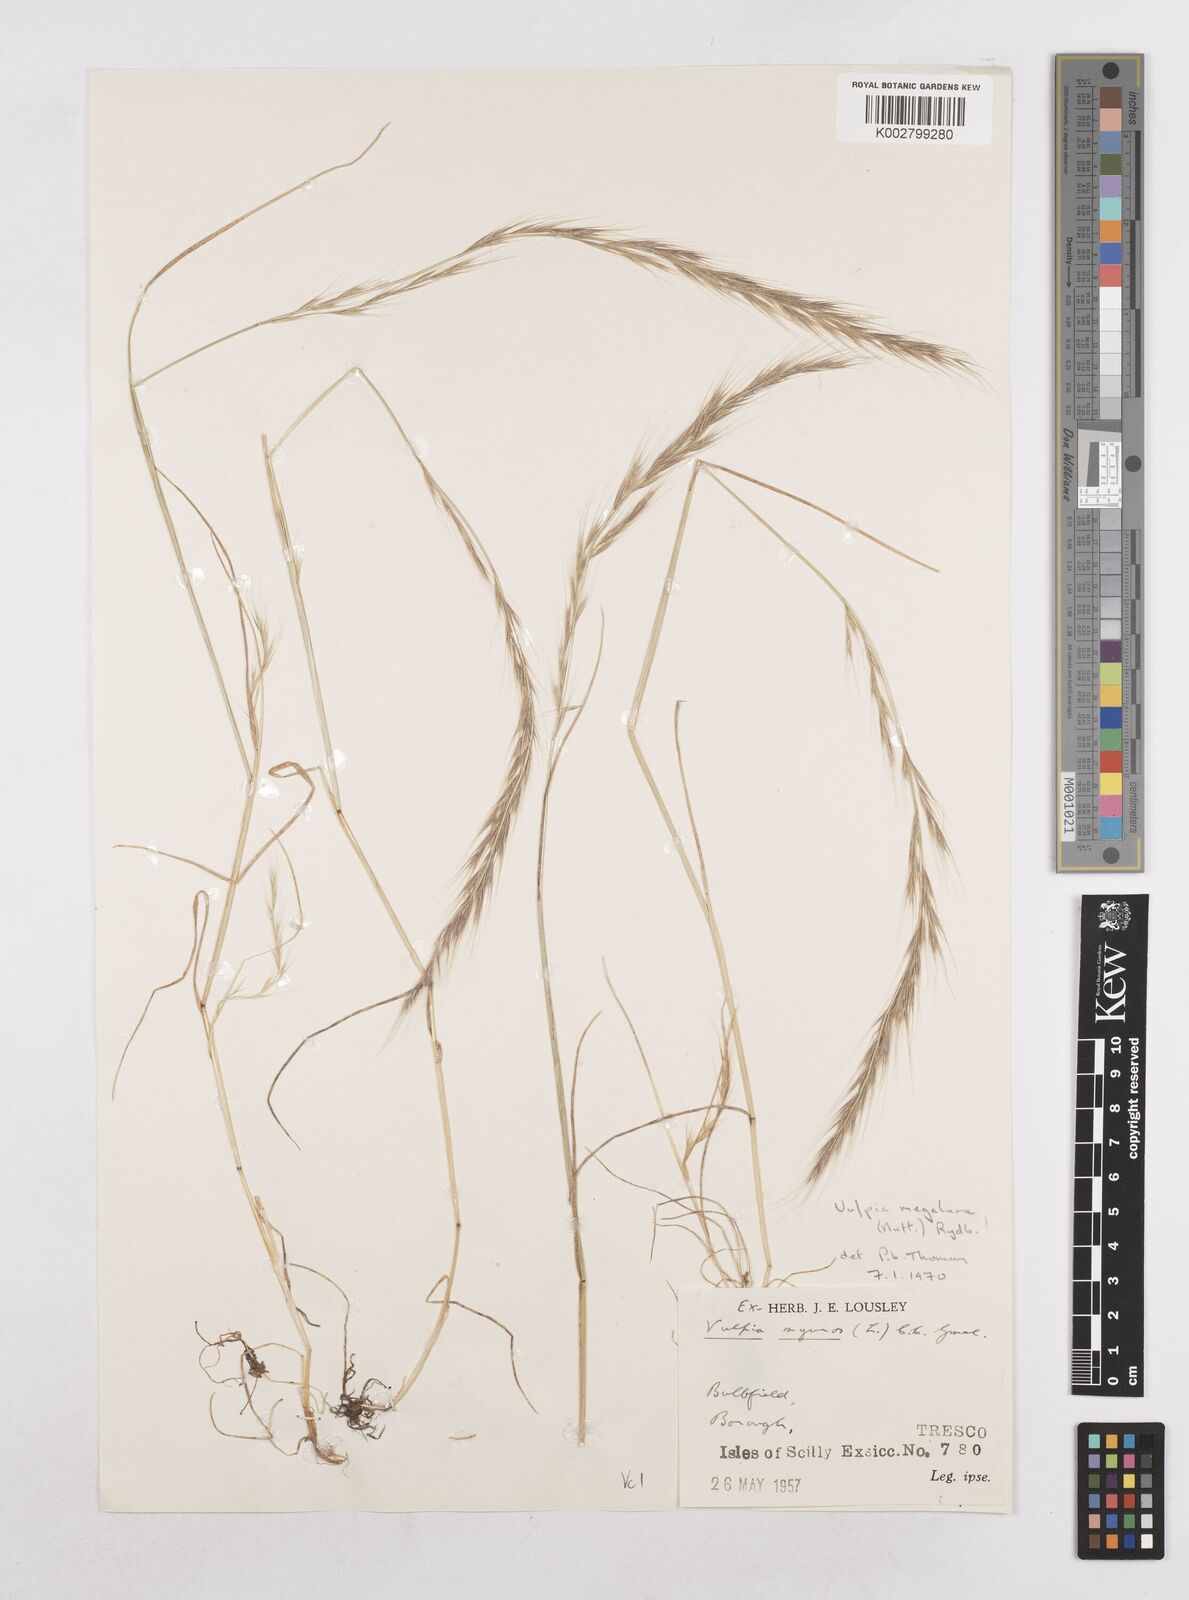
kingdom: Plantae
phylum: Tracheophyta
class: Liliopsida
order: Poales
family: Poaceae
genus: Festuca
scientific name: Festuca myuros
